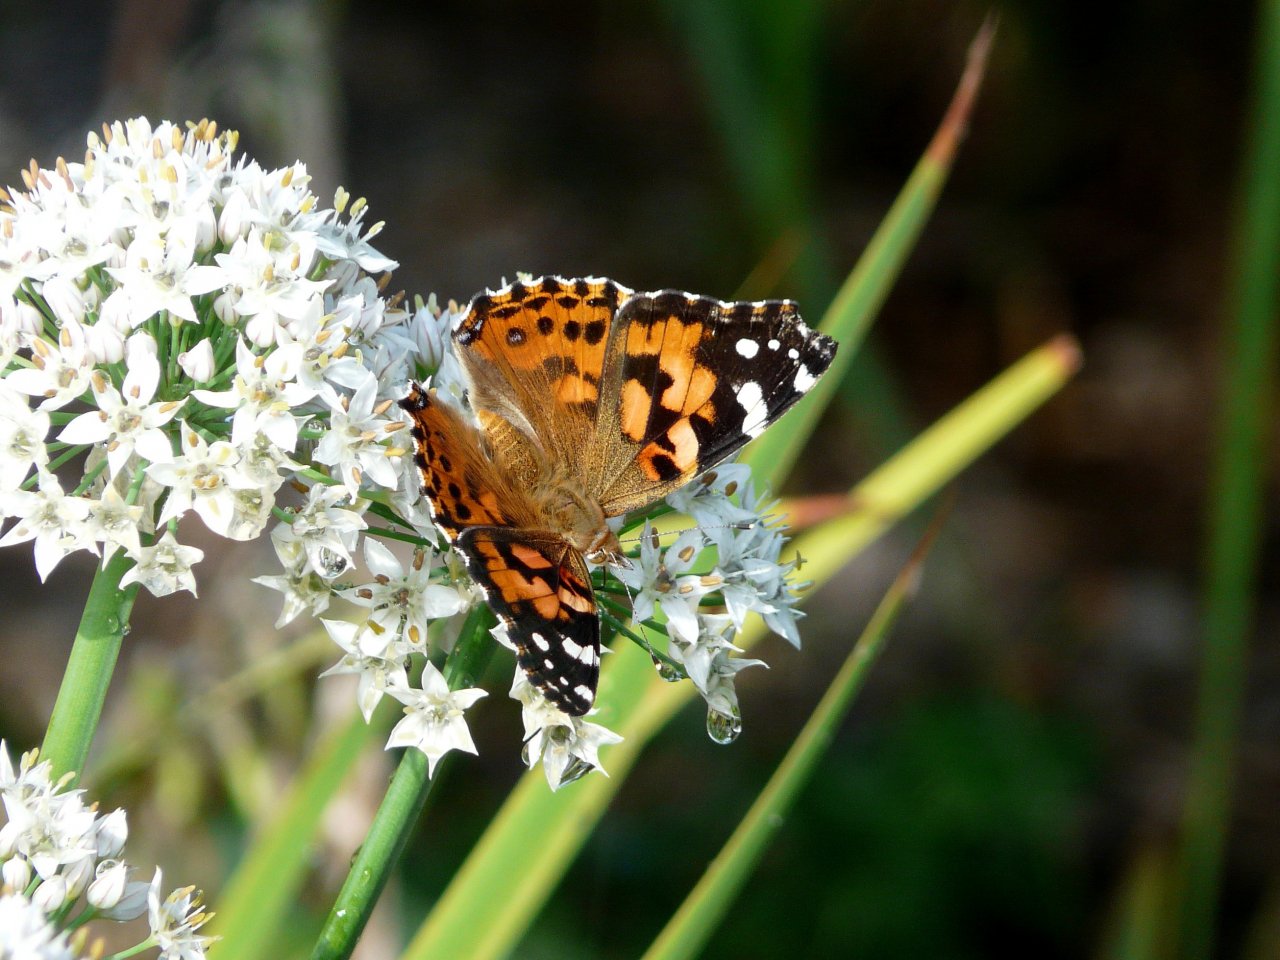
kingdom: Animalia
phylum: Arthropoda
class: Insecta
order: Lepidoptera
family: Nymphalidae
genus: Vanessa
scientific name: Vanessa cardui
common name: Painted Lady
